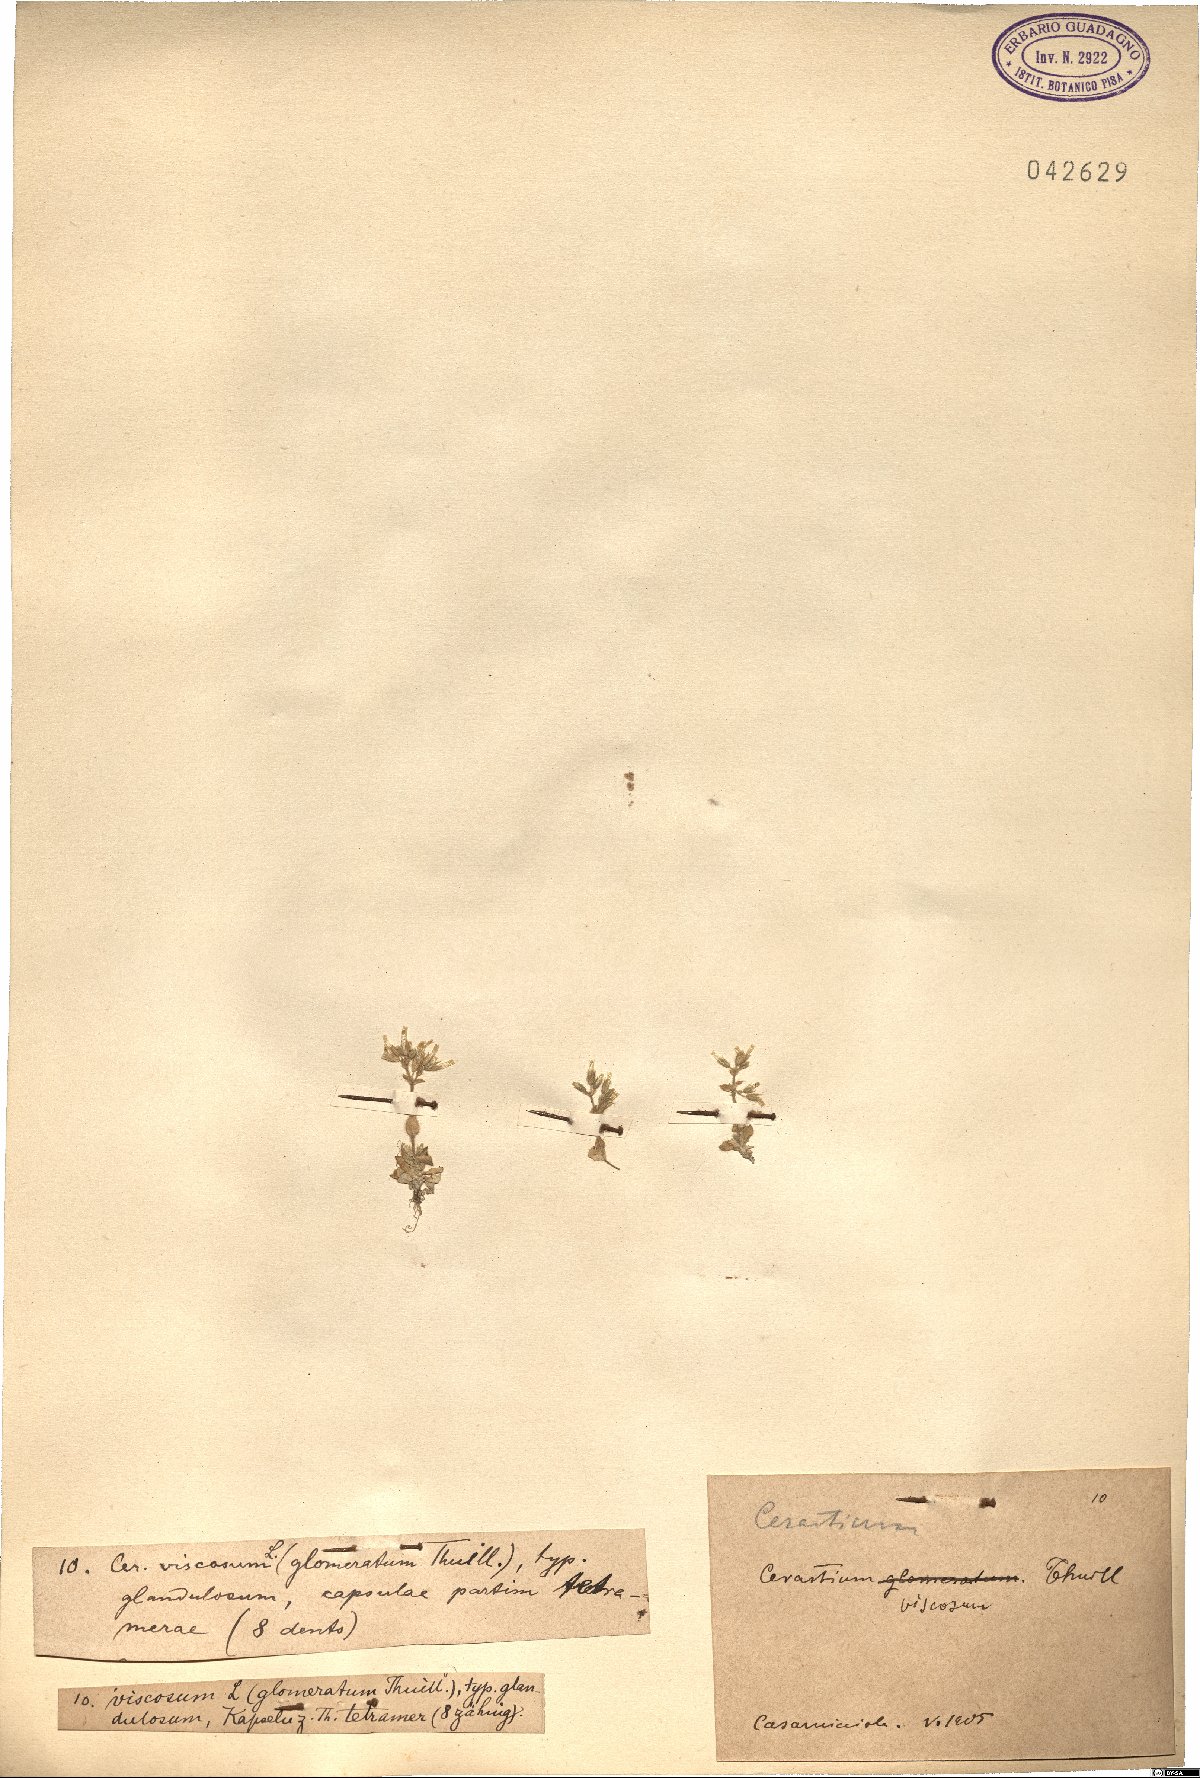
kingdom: Plantae
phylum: Tracheophyta
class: Magnoliopsida
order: Caryophyllales
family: Caryophyllaceae
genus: Cerastium
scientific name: Cerastium holosteoides
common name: Big chickweed
